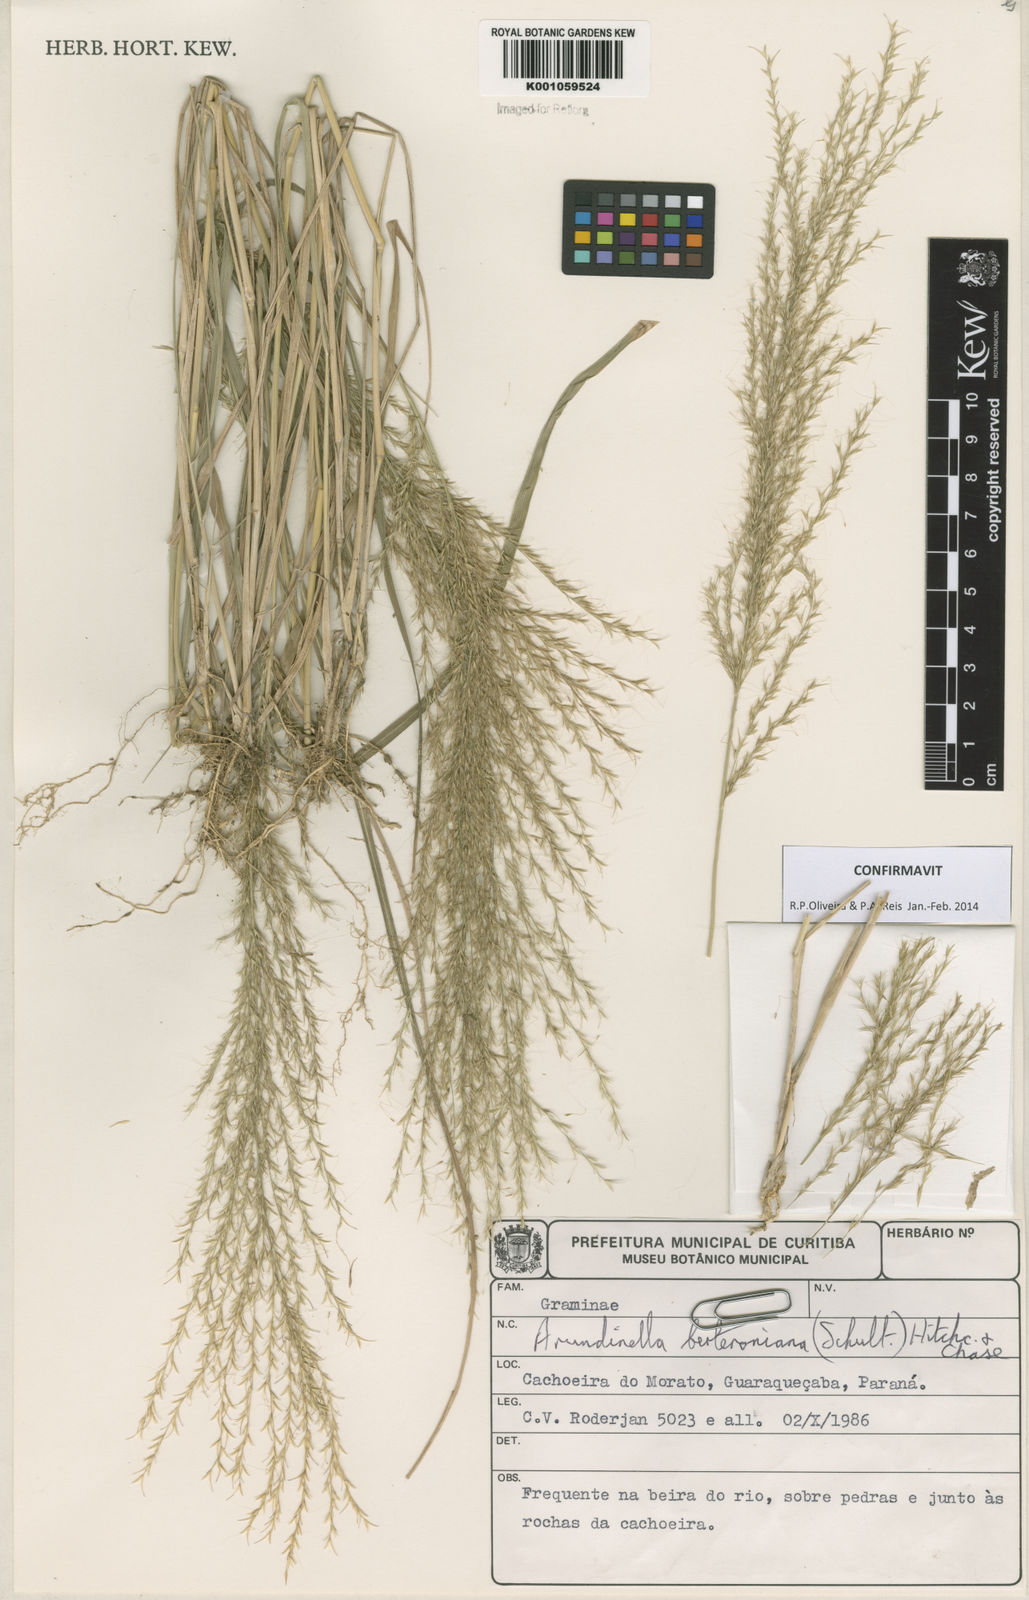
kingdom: Plantae
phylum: Tracheophyta
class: Liliopsida
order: Poales
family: Poaceae
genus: Arundinella
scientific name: Arundinella berteroniana
